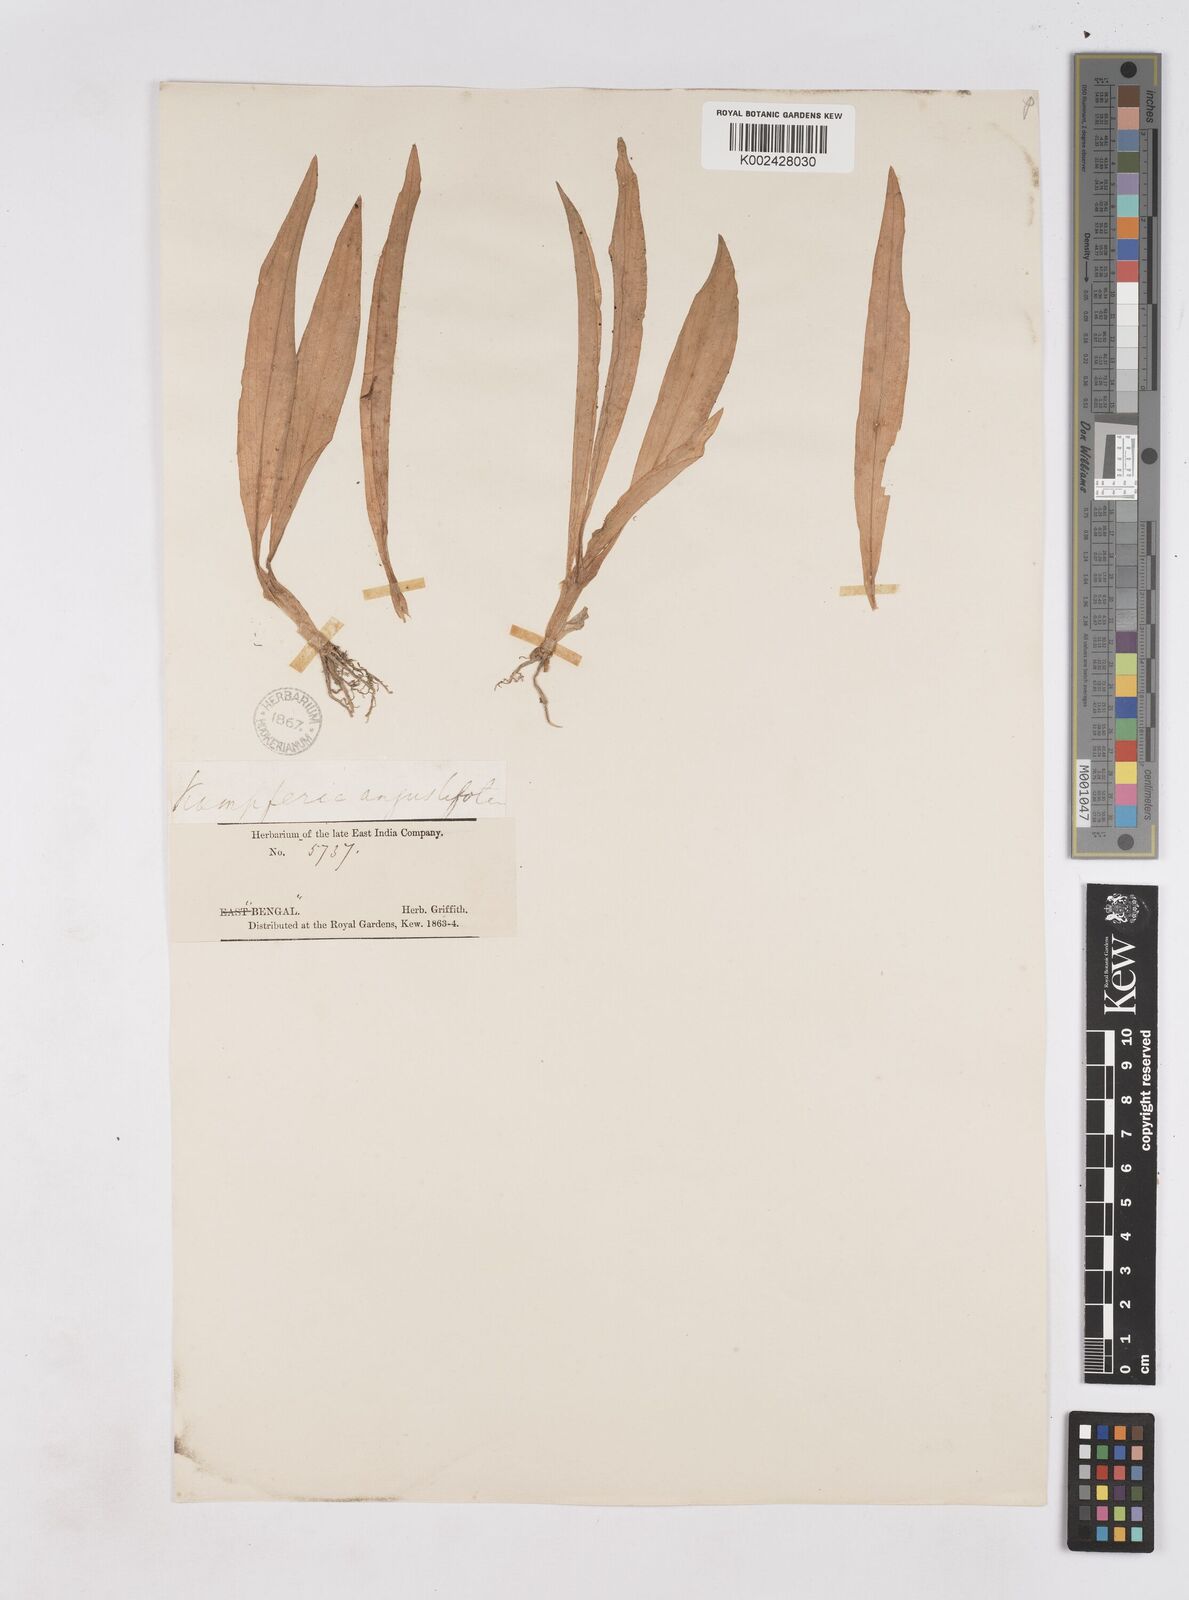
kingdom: Plantae
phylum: Tracheophyta
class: Liliopsida
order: Zingiberales
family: Zingiberaceae
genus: Kaempferia
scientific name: Kaempferia angustifolia
